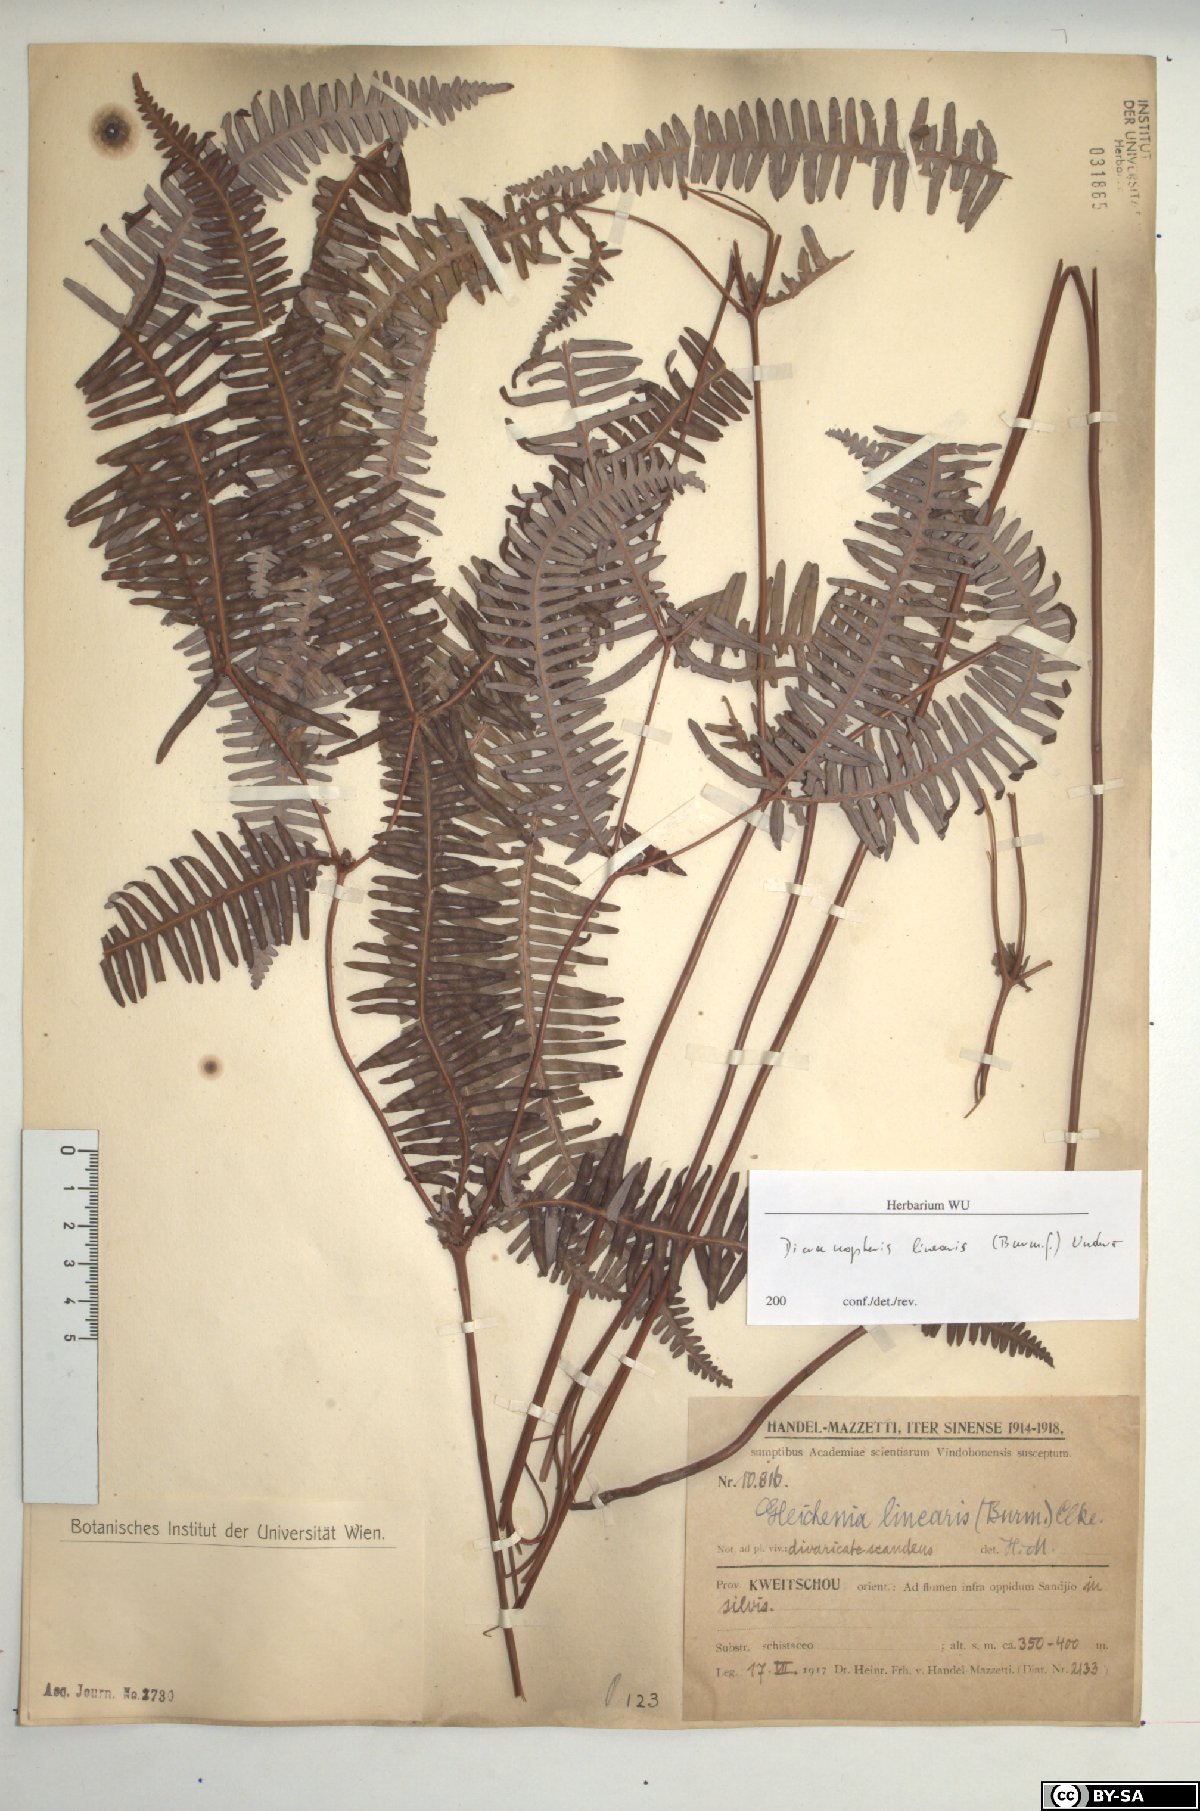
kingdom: Plantae
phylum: Tracheophyta
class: Polypodiopsida
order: Gleicheniales
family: Gleicheniaceae
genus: Dicranopteris
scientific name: Dicranopteris linearis
